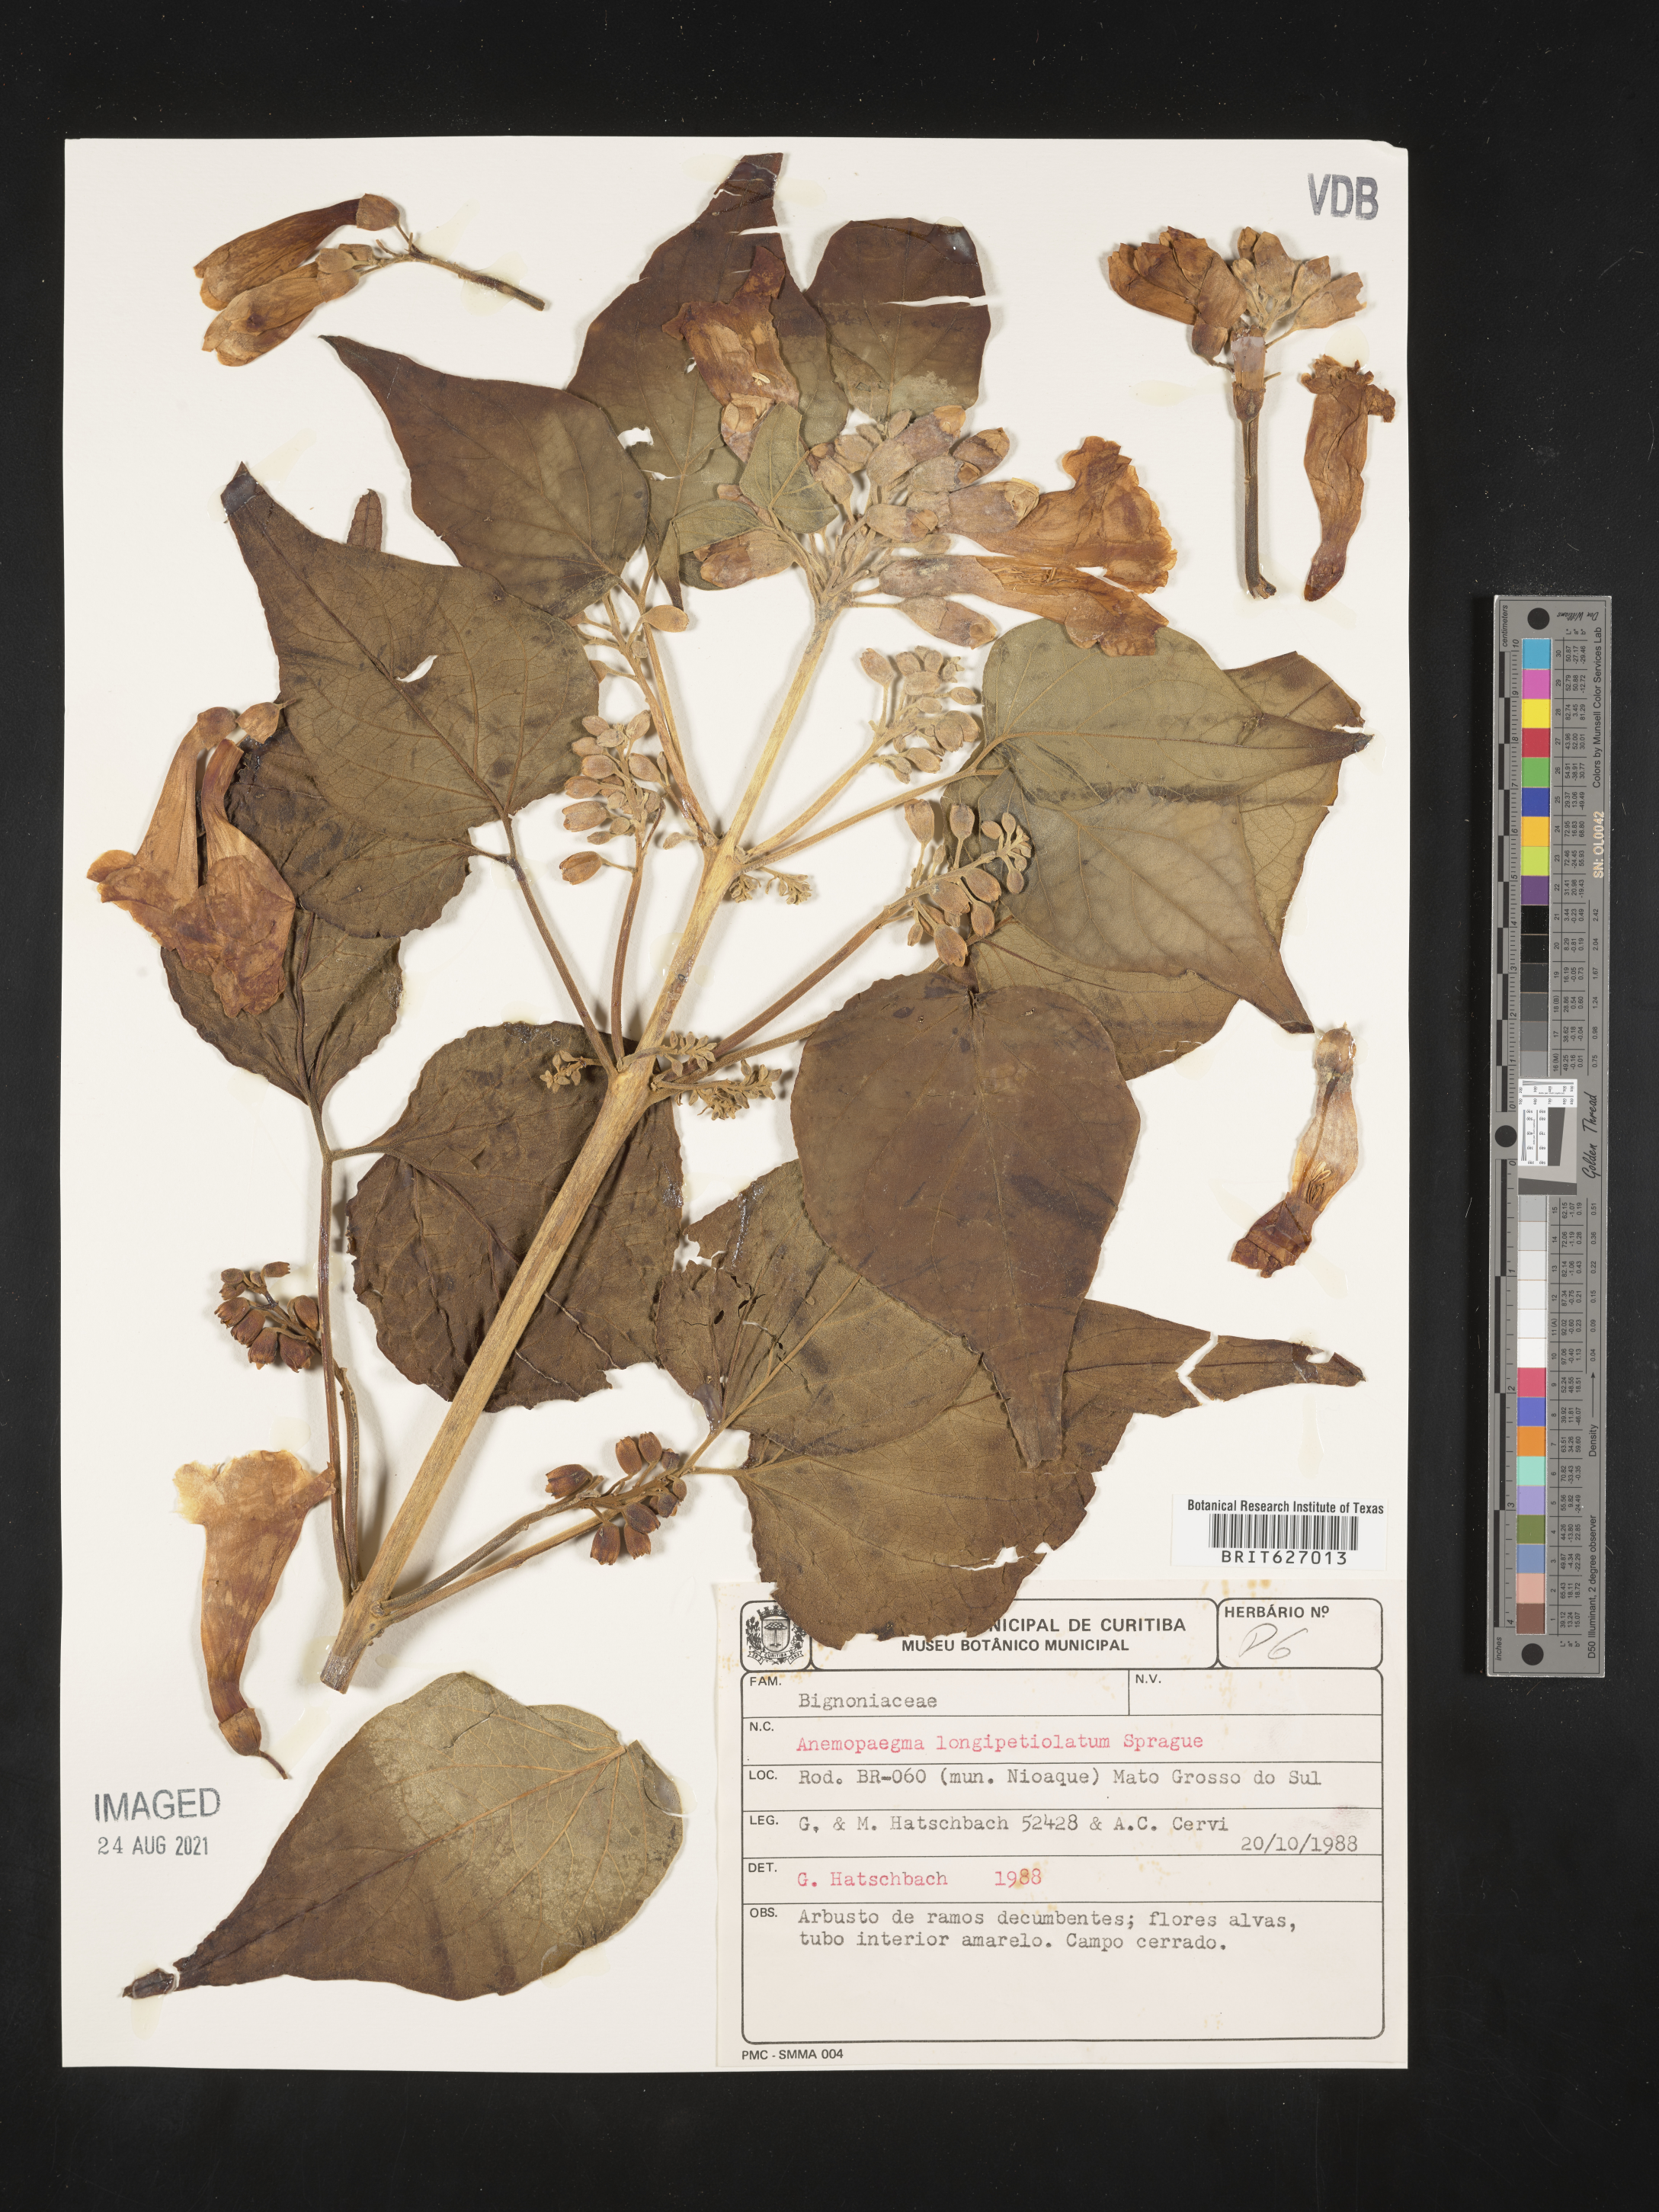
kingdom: Plantae
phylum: Tracheophyta
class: Magnoliopsida
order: Lamiales
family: Bignoniaceae
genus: Anemopaegma
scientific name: Anemopaegma longipetiolatum
